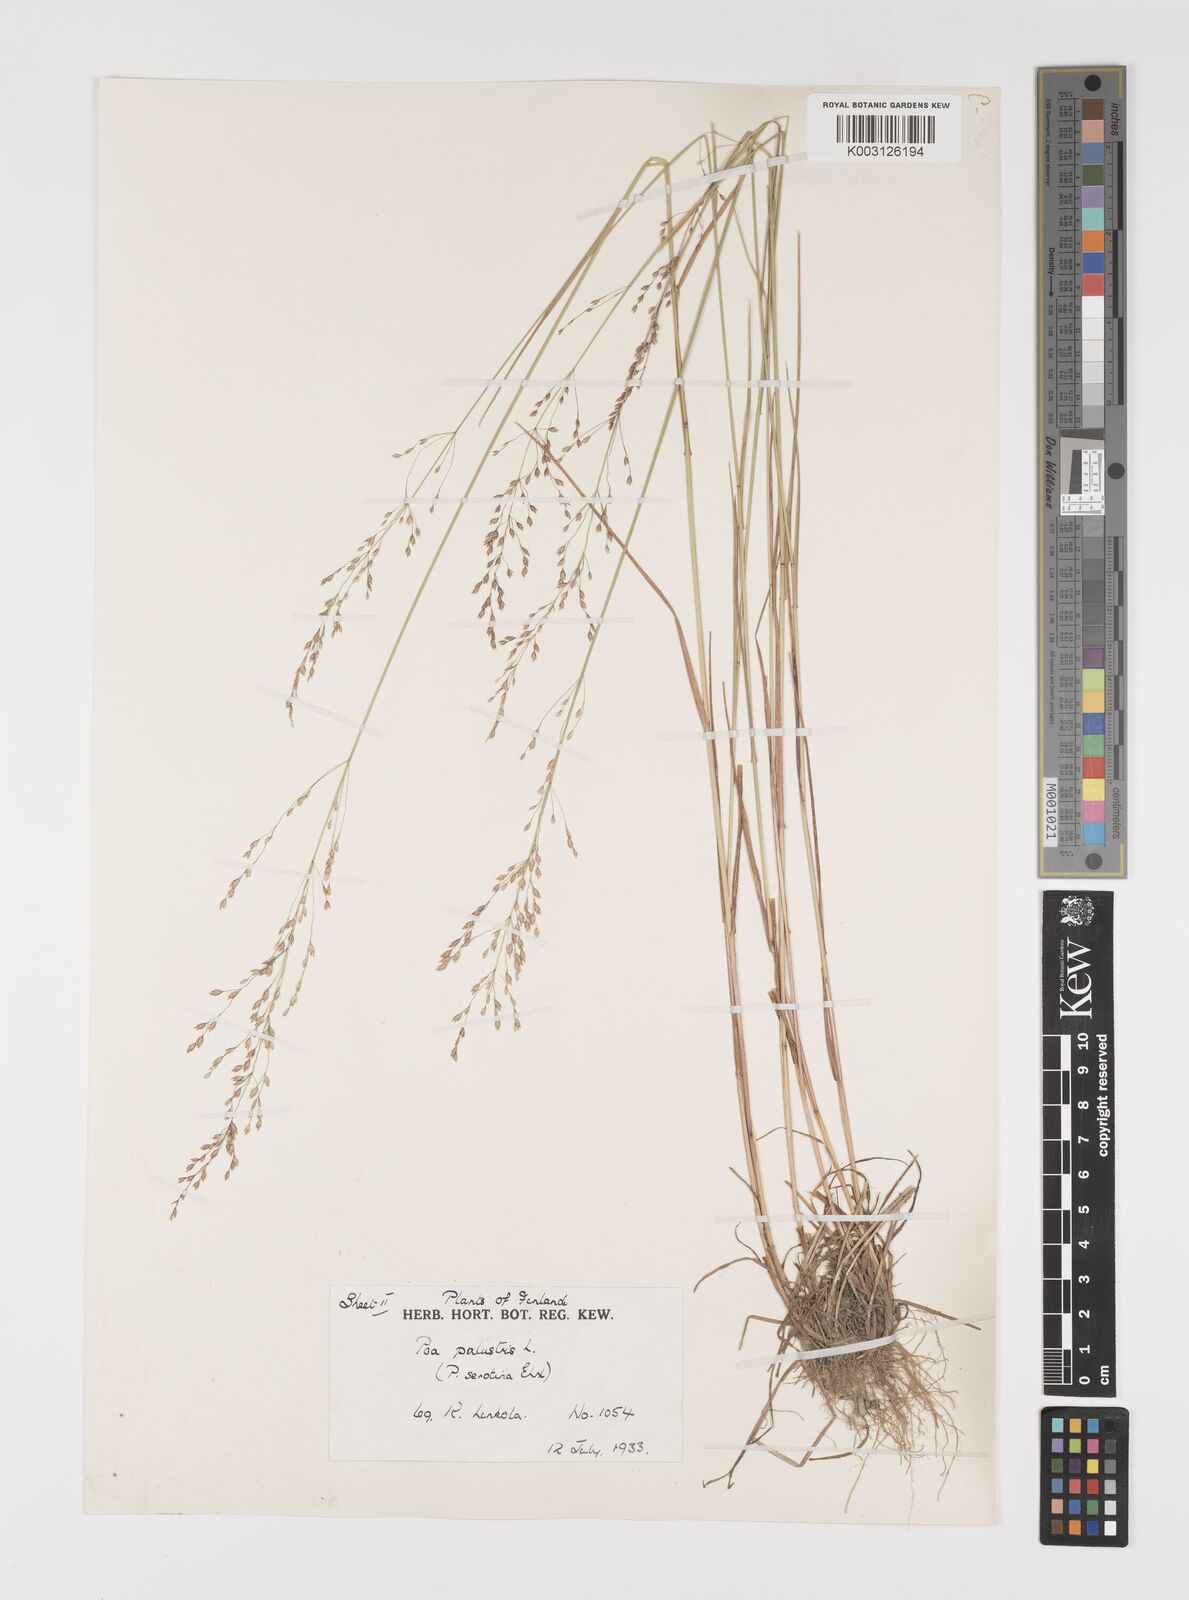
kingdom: Plantae
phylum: Tracheophyta
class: Liliopsida
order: Poales
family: Poaceae
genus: Poa
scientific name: Poa palustris
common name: Swamp meadow-grass
